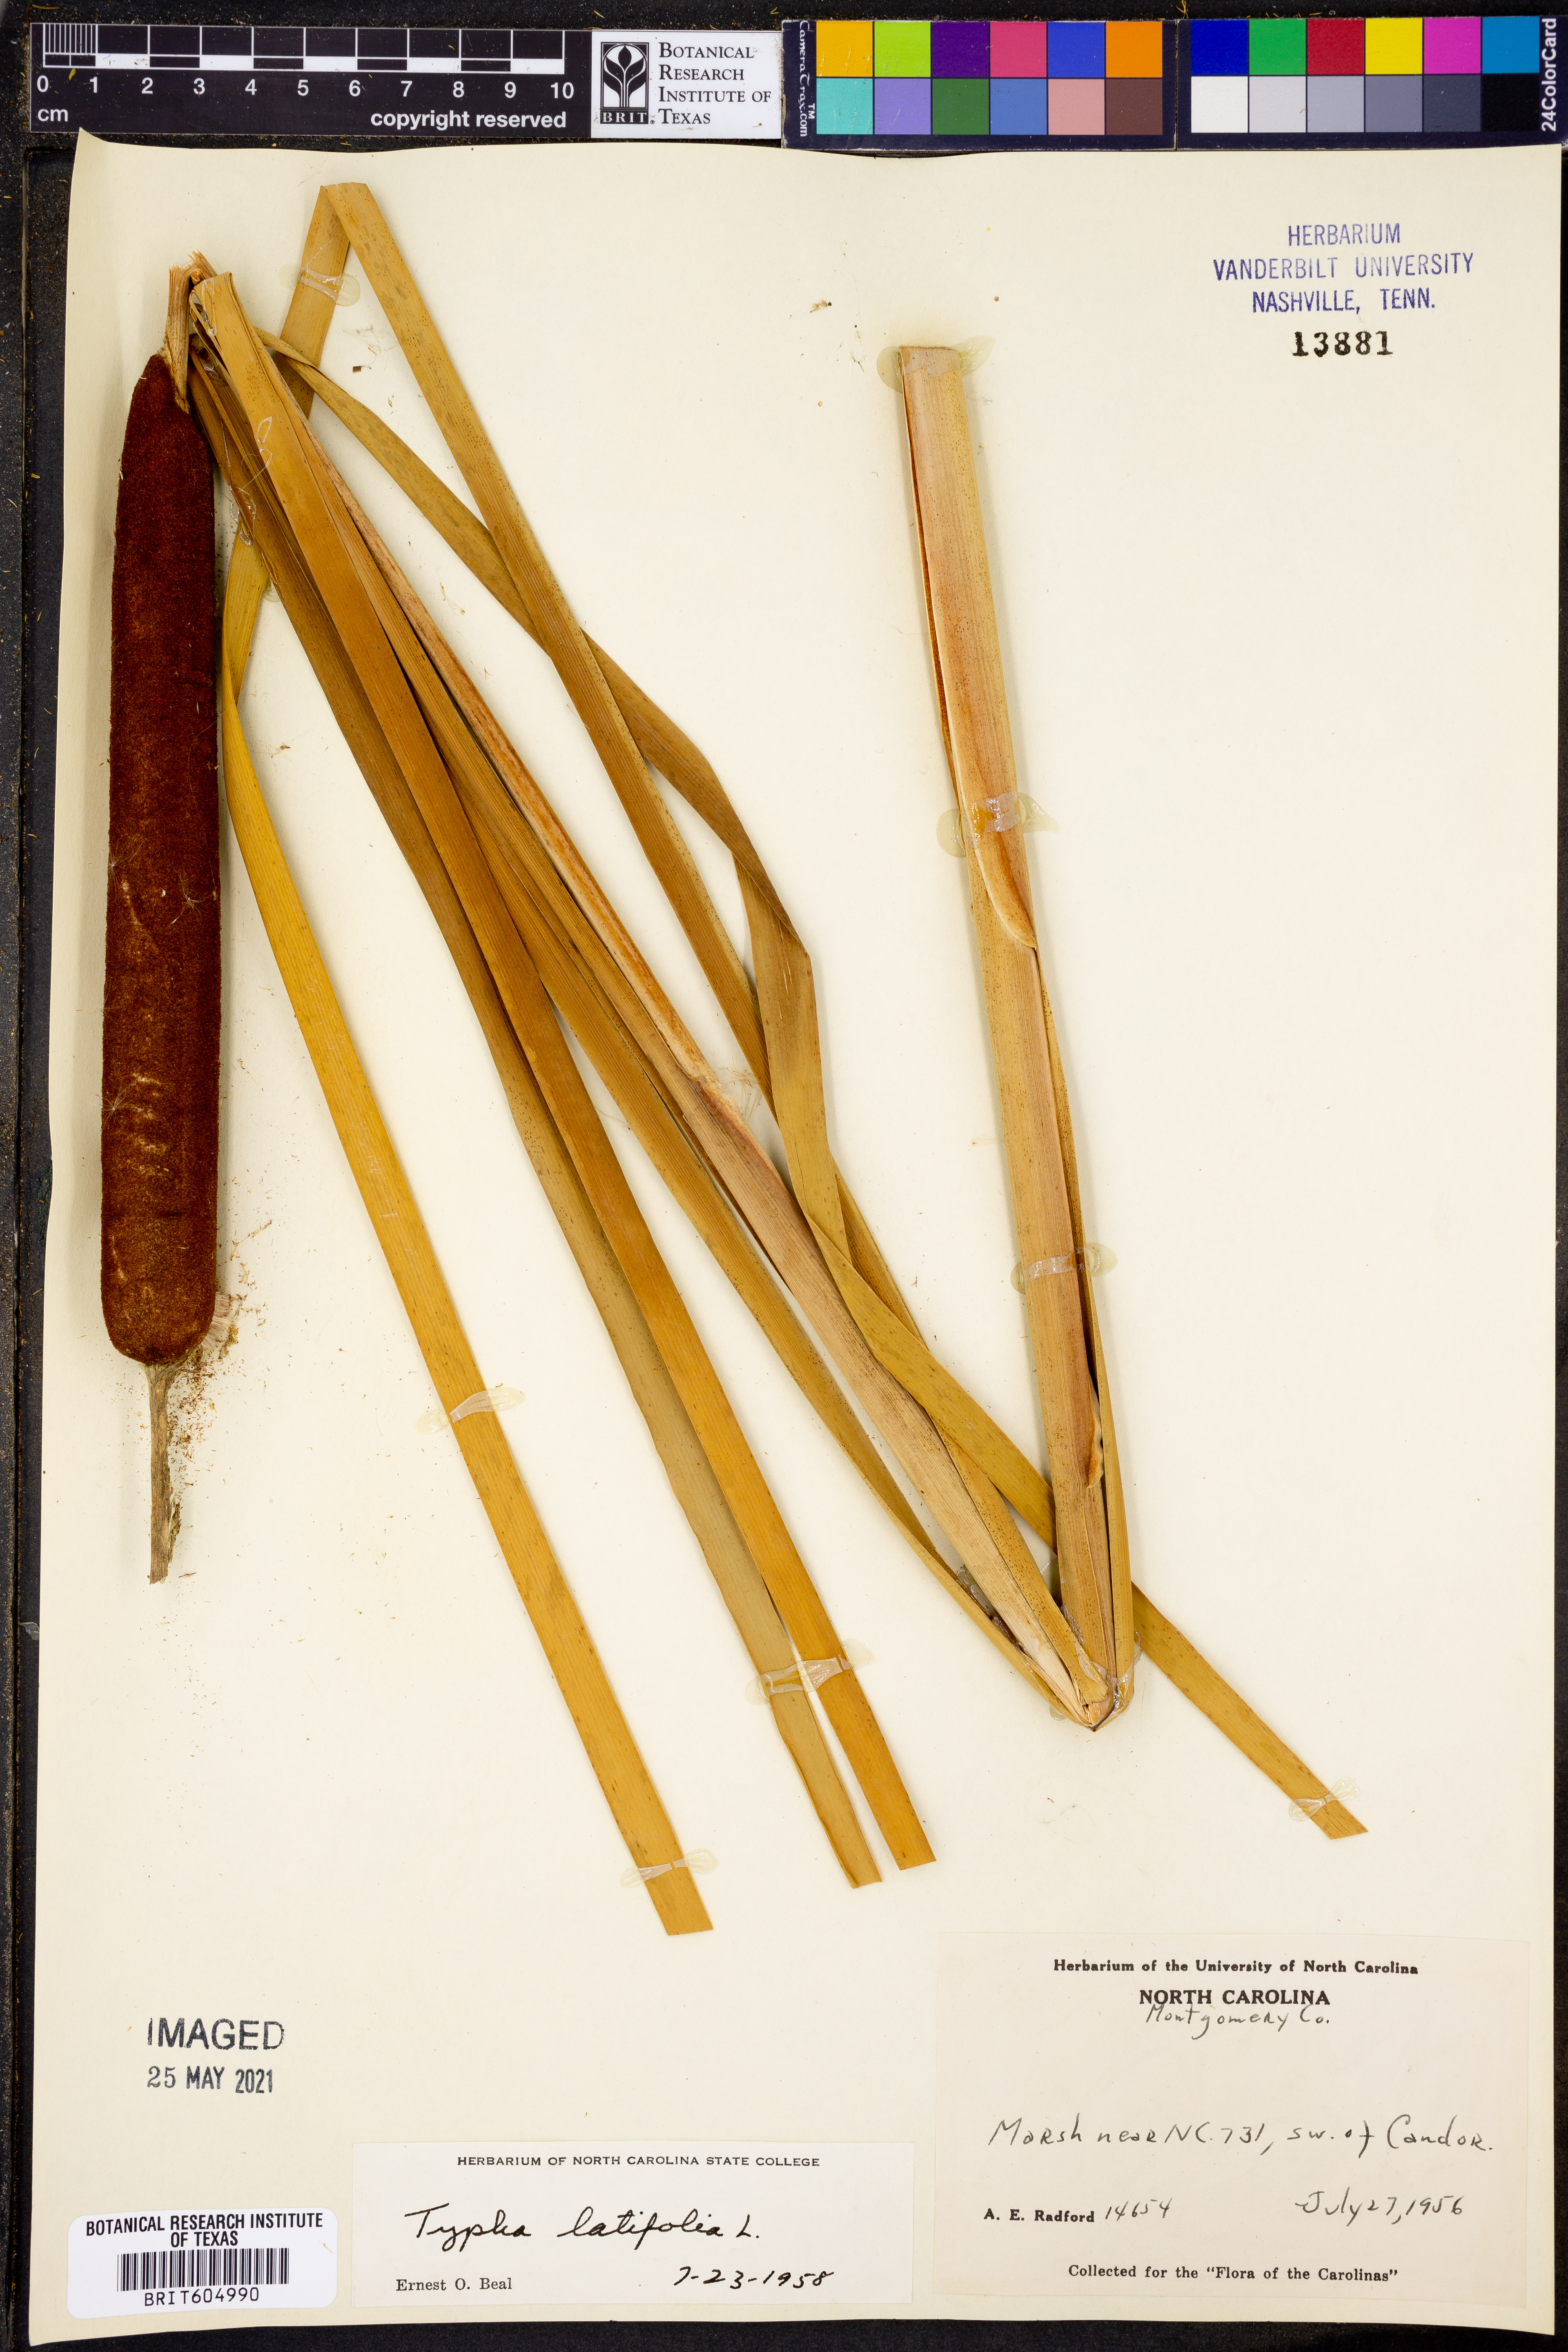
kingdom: Plantae
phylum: Tracheophyta
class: Liliopsida
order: Poales
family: Typhaceae
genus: Typha
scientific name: Typha latifolia
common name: Broadleaf cattail
